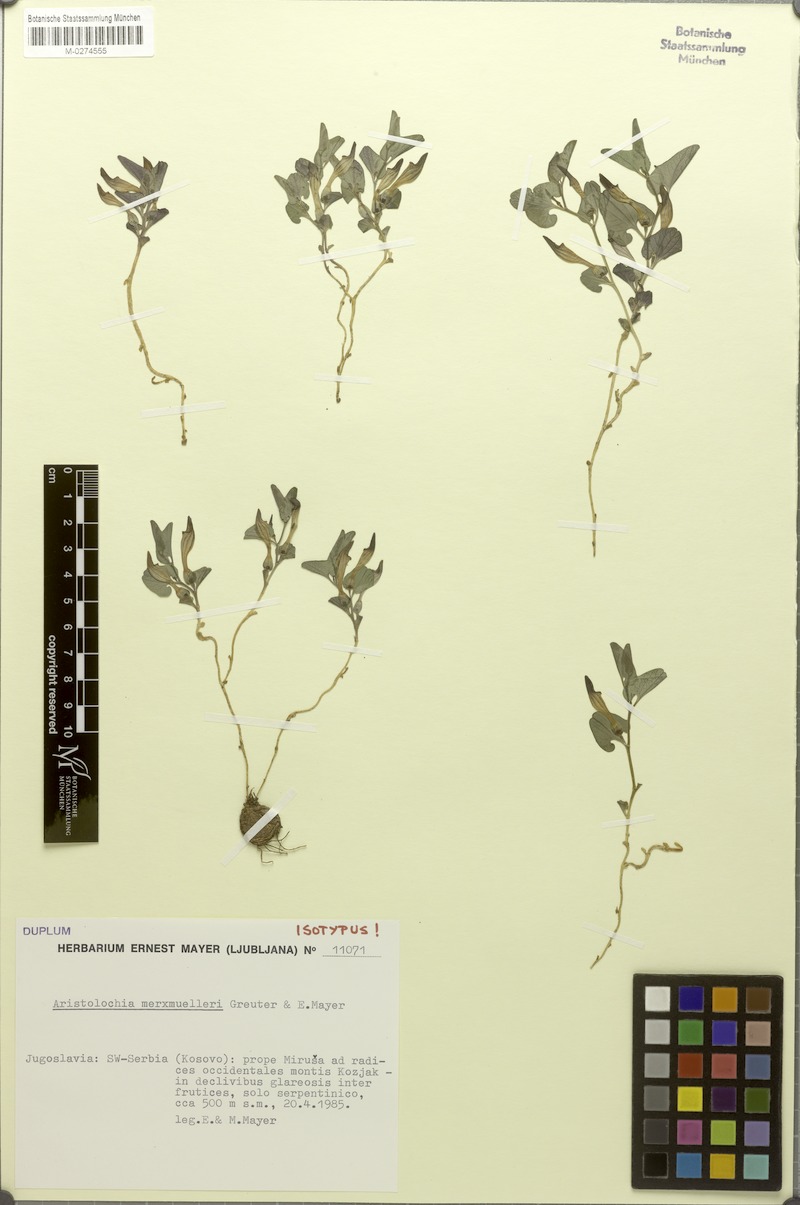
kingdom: Plantae
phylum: Tracheophyta
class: Magnoliopsida
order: Piperales
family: Aristolochiaceae
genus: Aristolochia
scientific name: Aristolochia merxmuelleri
